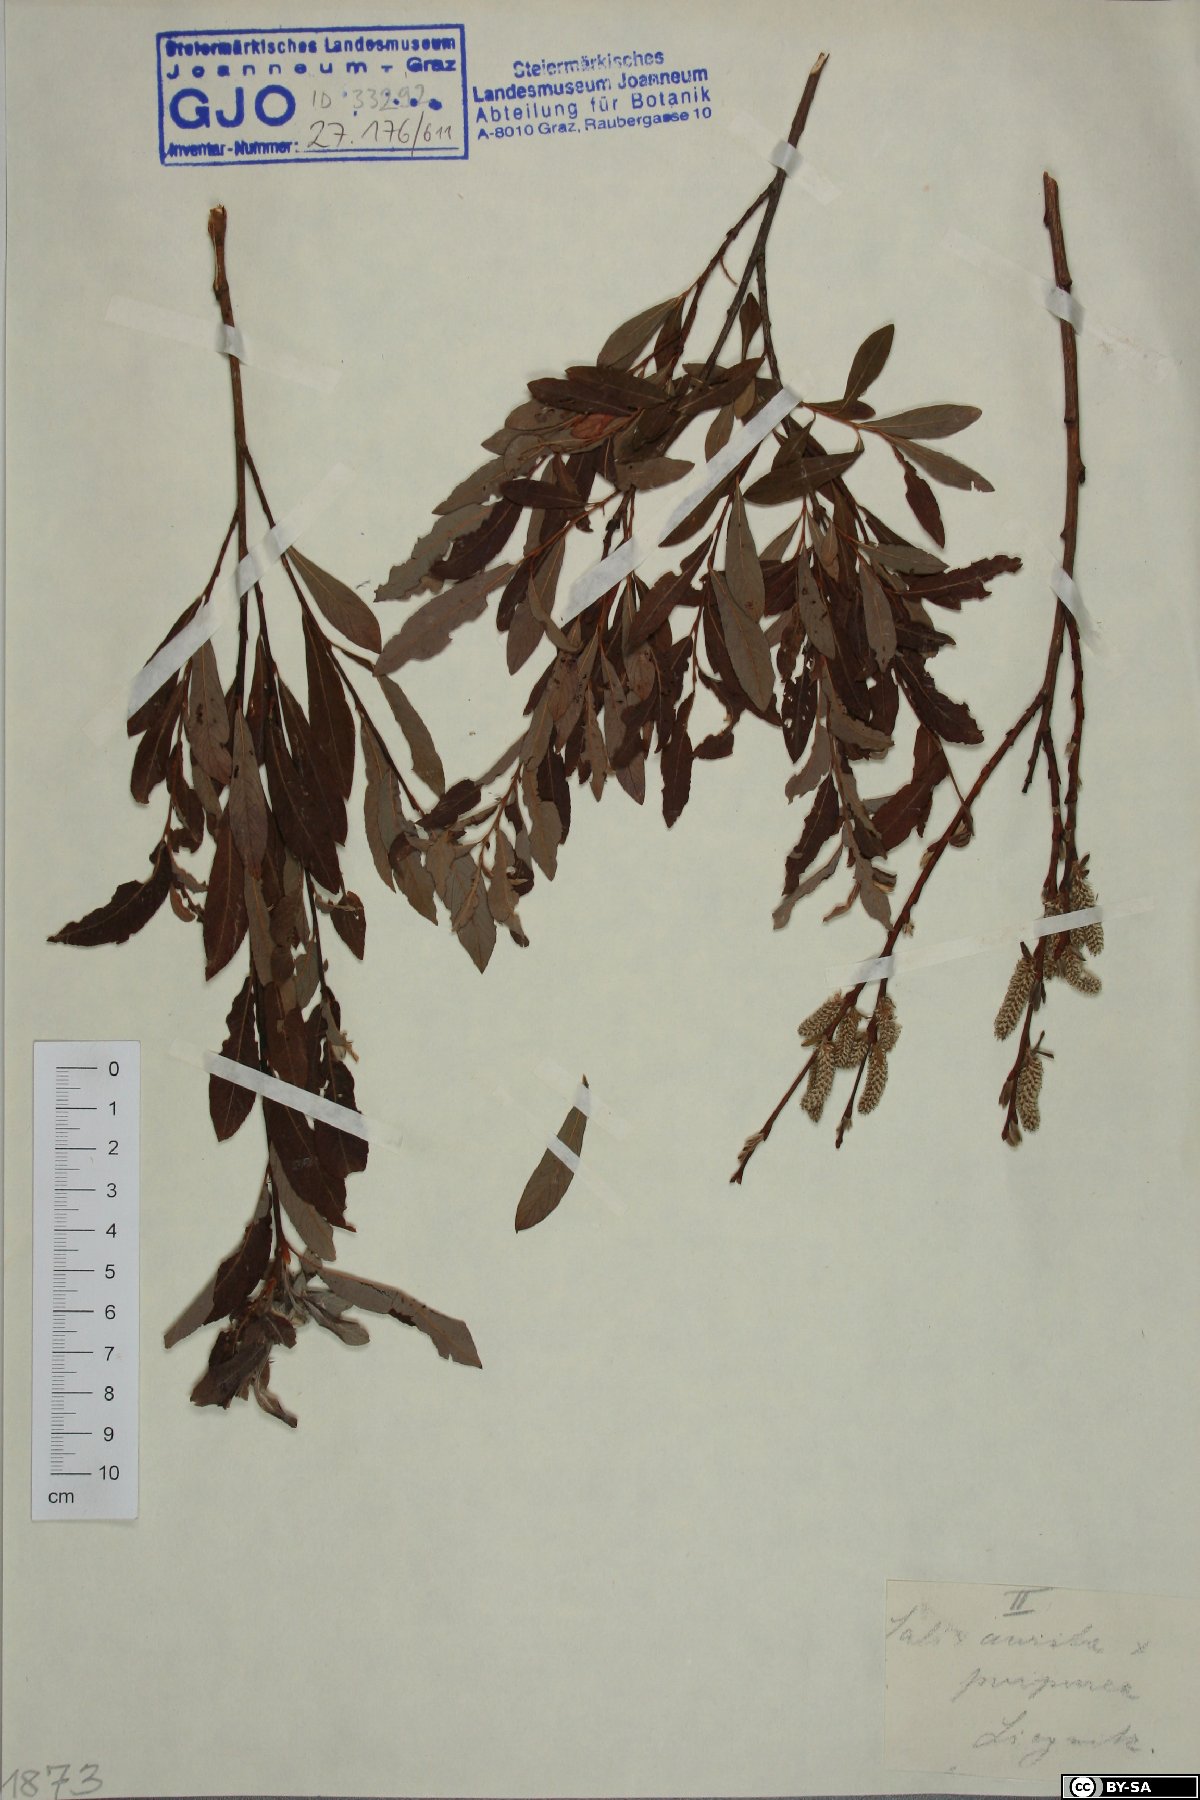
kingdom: Plantae
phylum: Tracheophyta
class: Magnoliopsida
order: Malpighiales
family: Salicaceae
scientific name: Salicaceae
